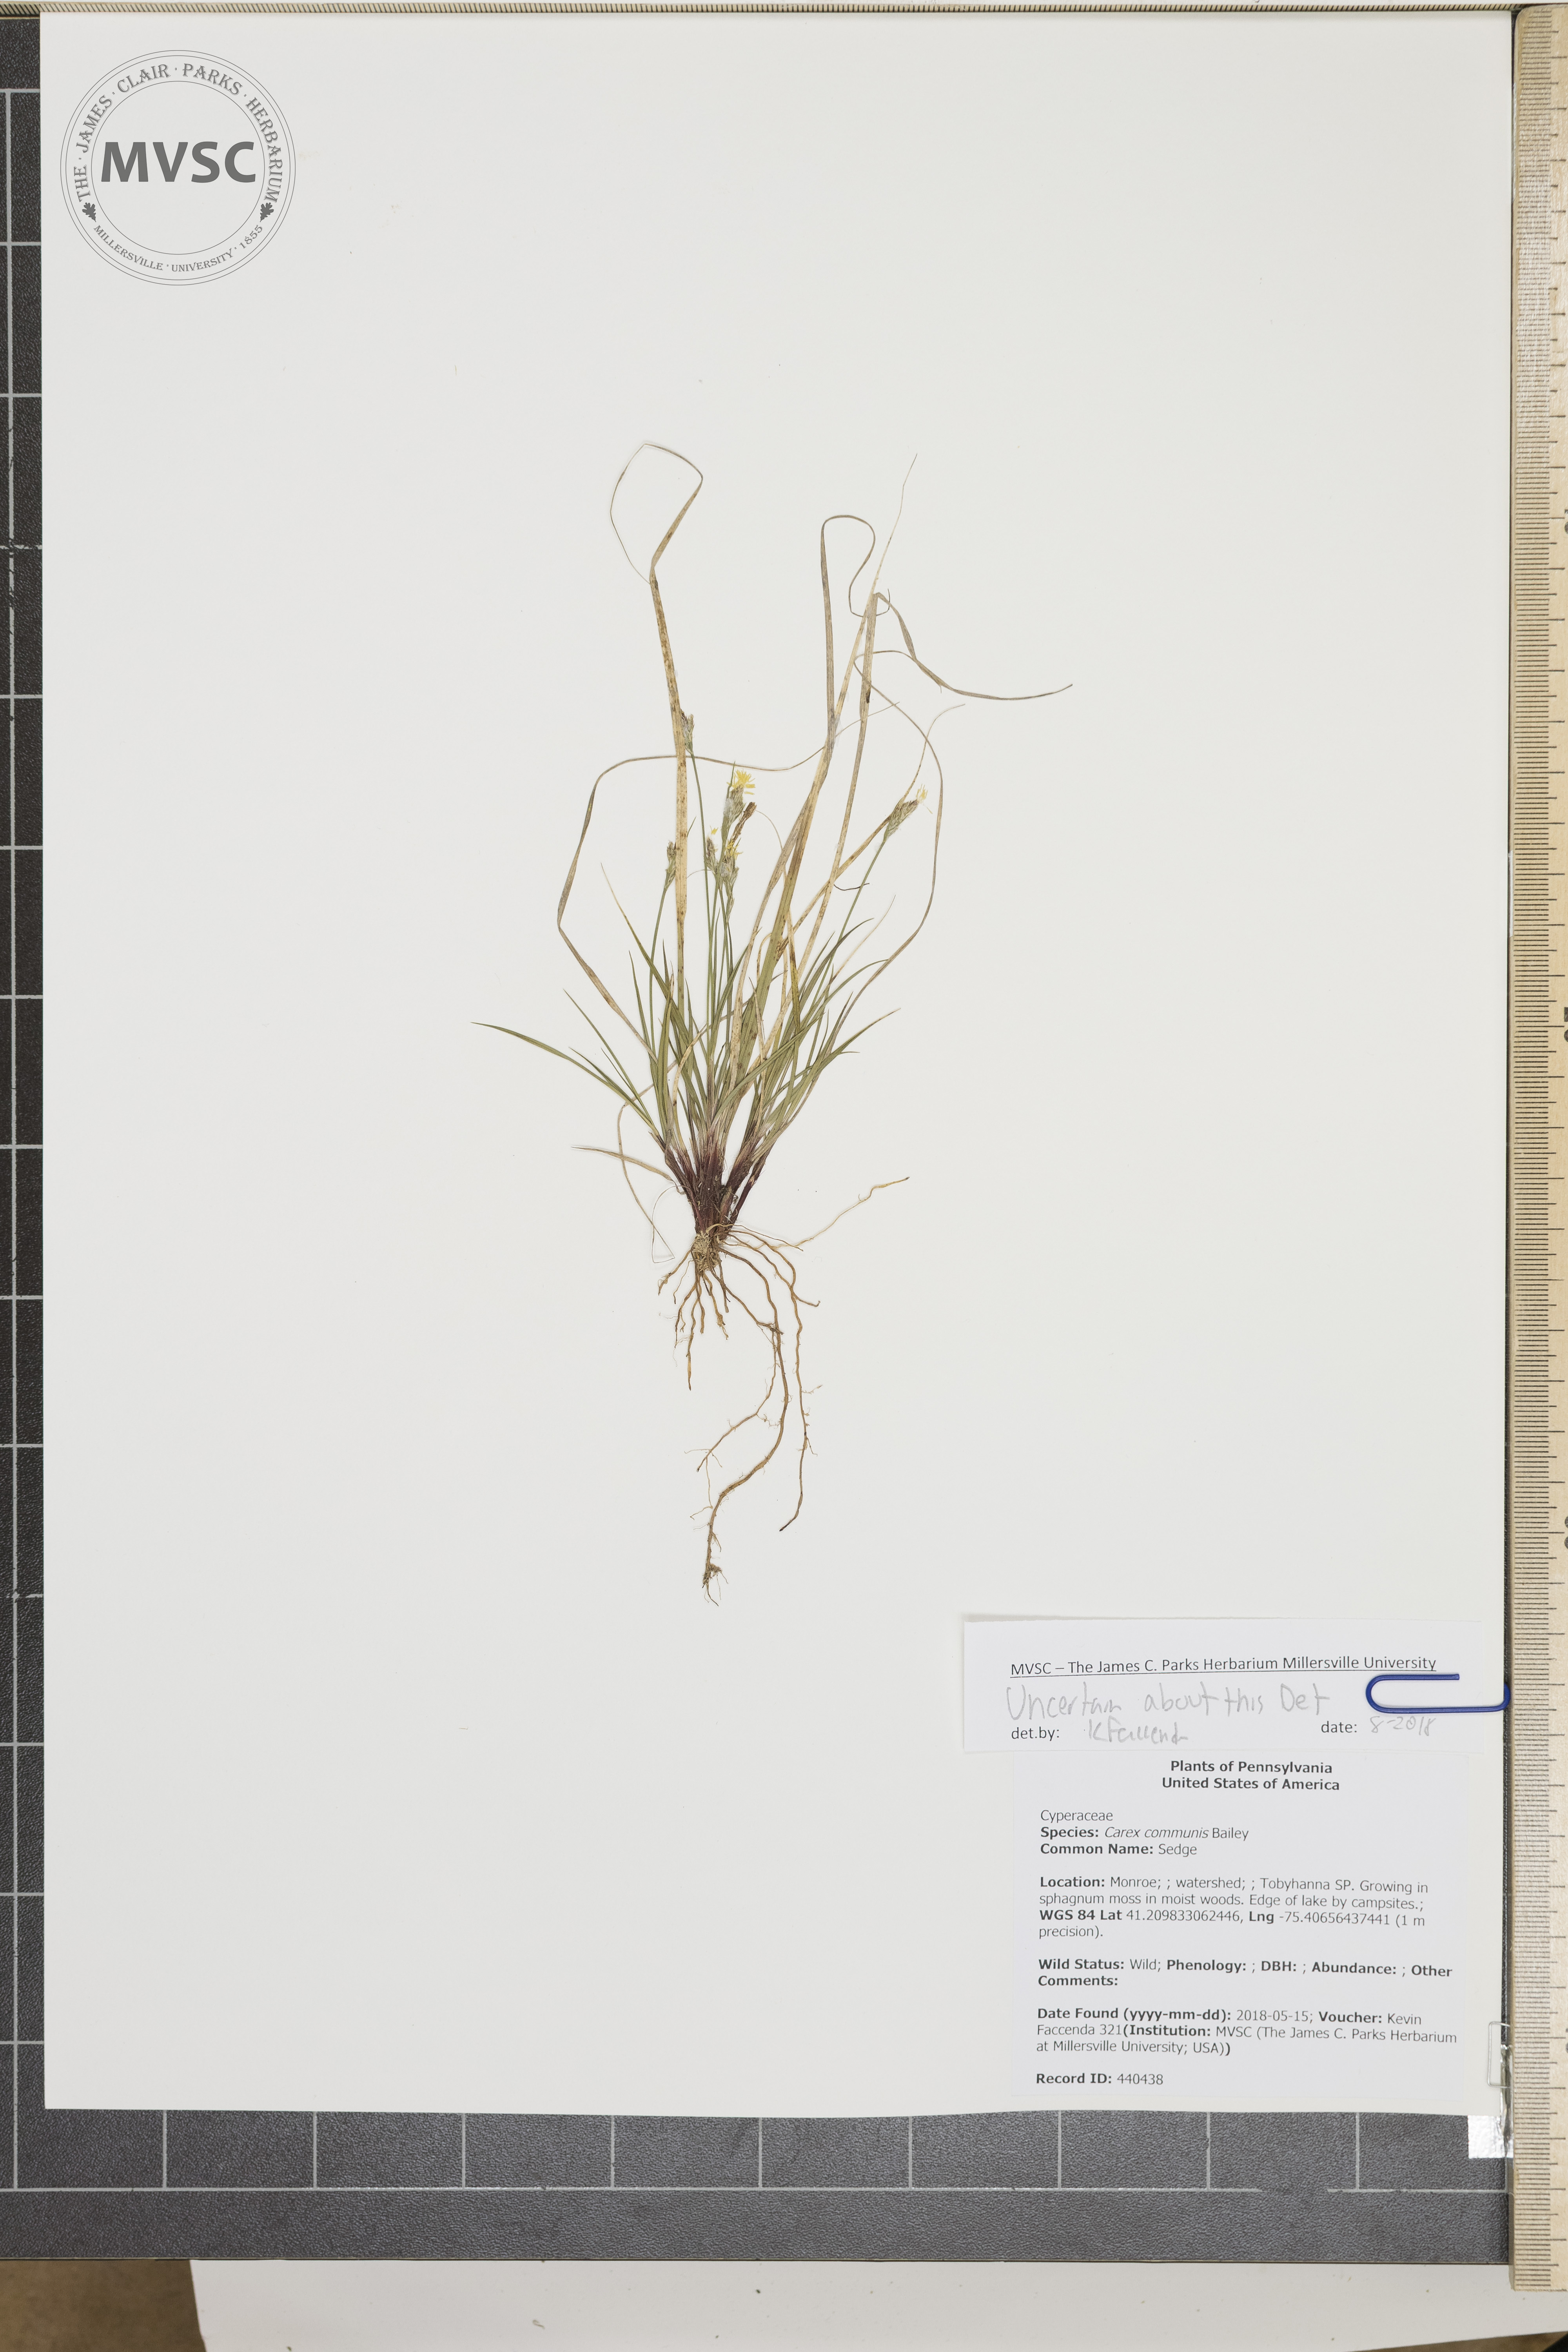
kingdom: Plantae
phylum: Tracheophyta
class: Liliopsida
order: Poales
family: Cyperaceae
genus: Carex
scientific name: Carex communis
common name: Sedge
